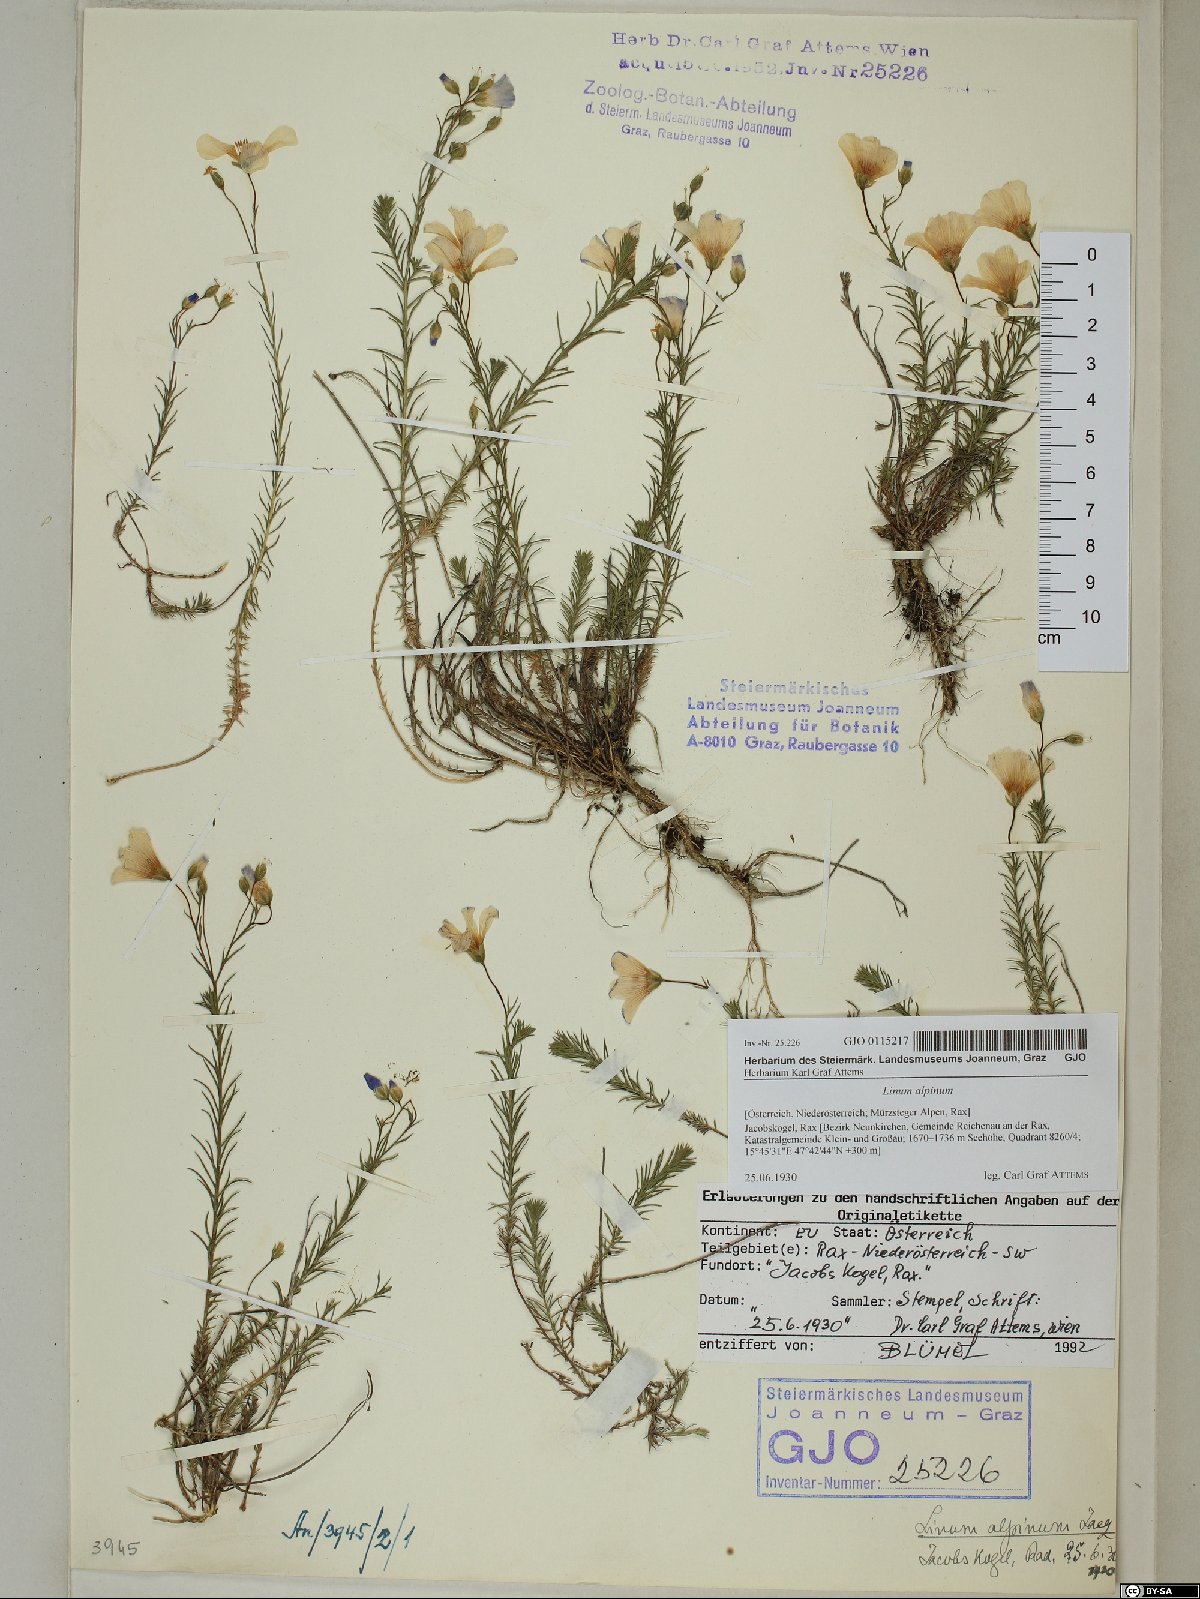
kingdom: Plantae
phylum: Tracheophyta
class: Magnoliopsida
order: Malpighiales
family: Linaceae
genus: Linum
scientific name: Linum alpinum
